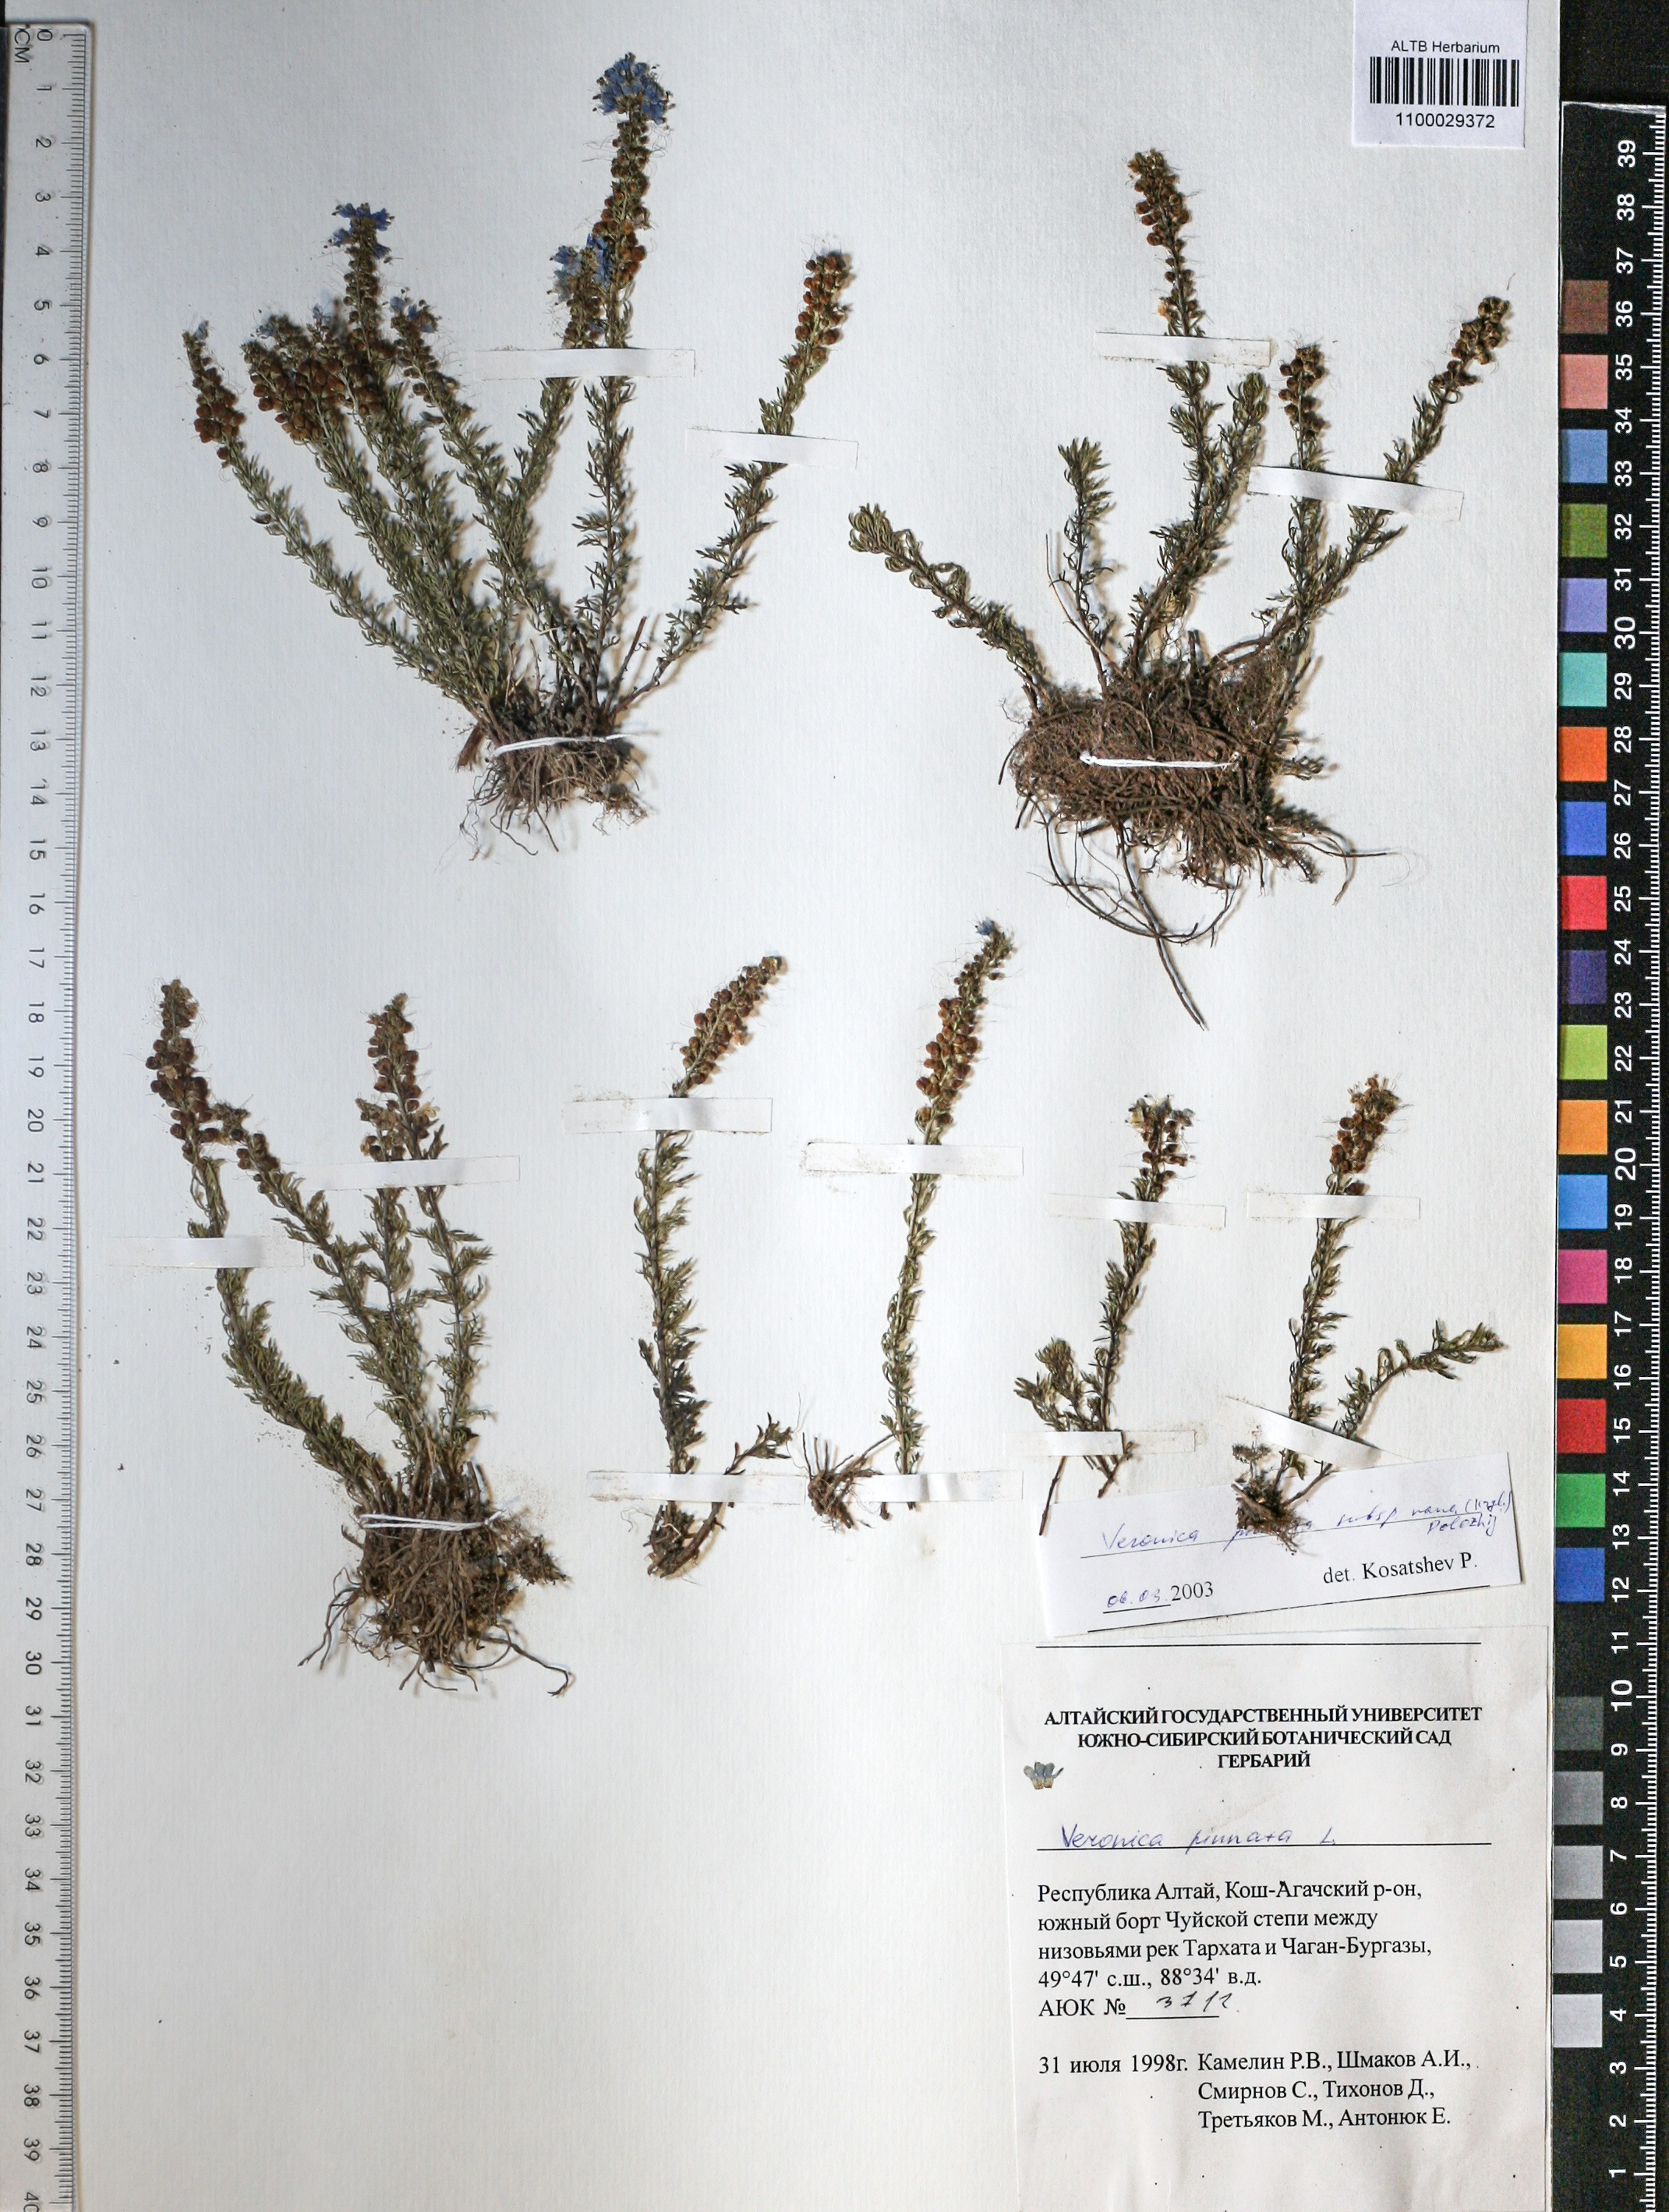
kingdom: Plantae
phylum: Tracheophyta
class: Magnoliopsida
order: Lamiales
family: Scrophulariaceae
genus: Scrophularia
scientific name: Scrophularia incisa
